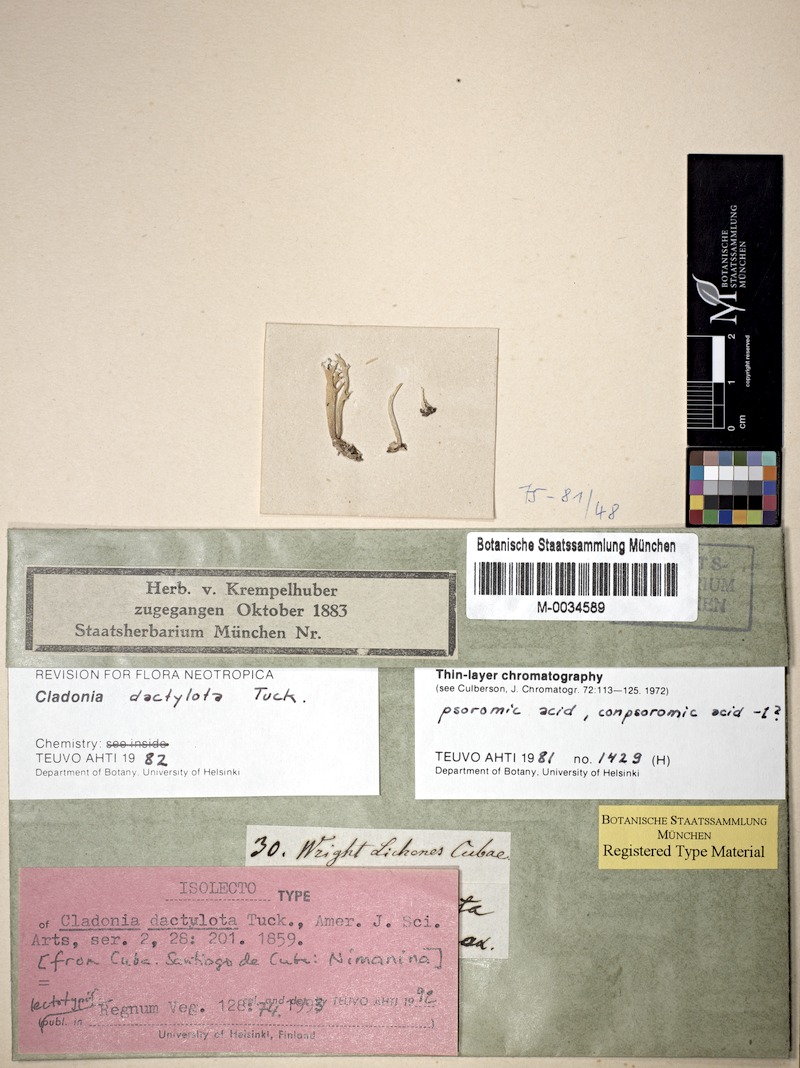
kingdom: Fungi
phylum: Ascomycota
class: Lecanoromycetes
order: Lecanorales
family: Cladoniaceae
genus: Cladonia
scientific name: Cladonia dactylota
